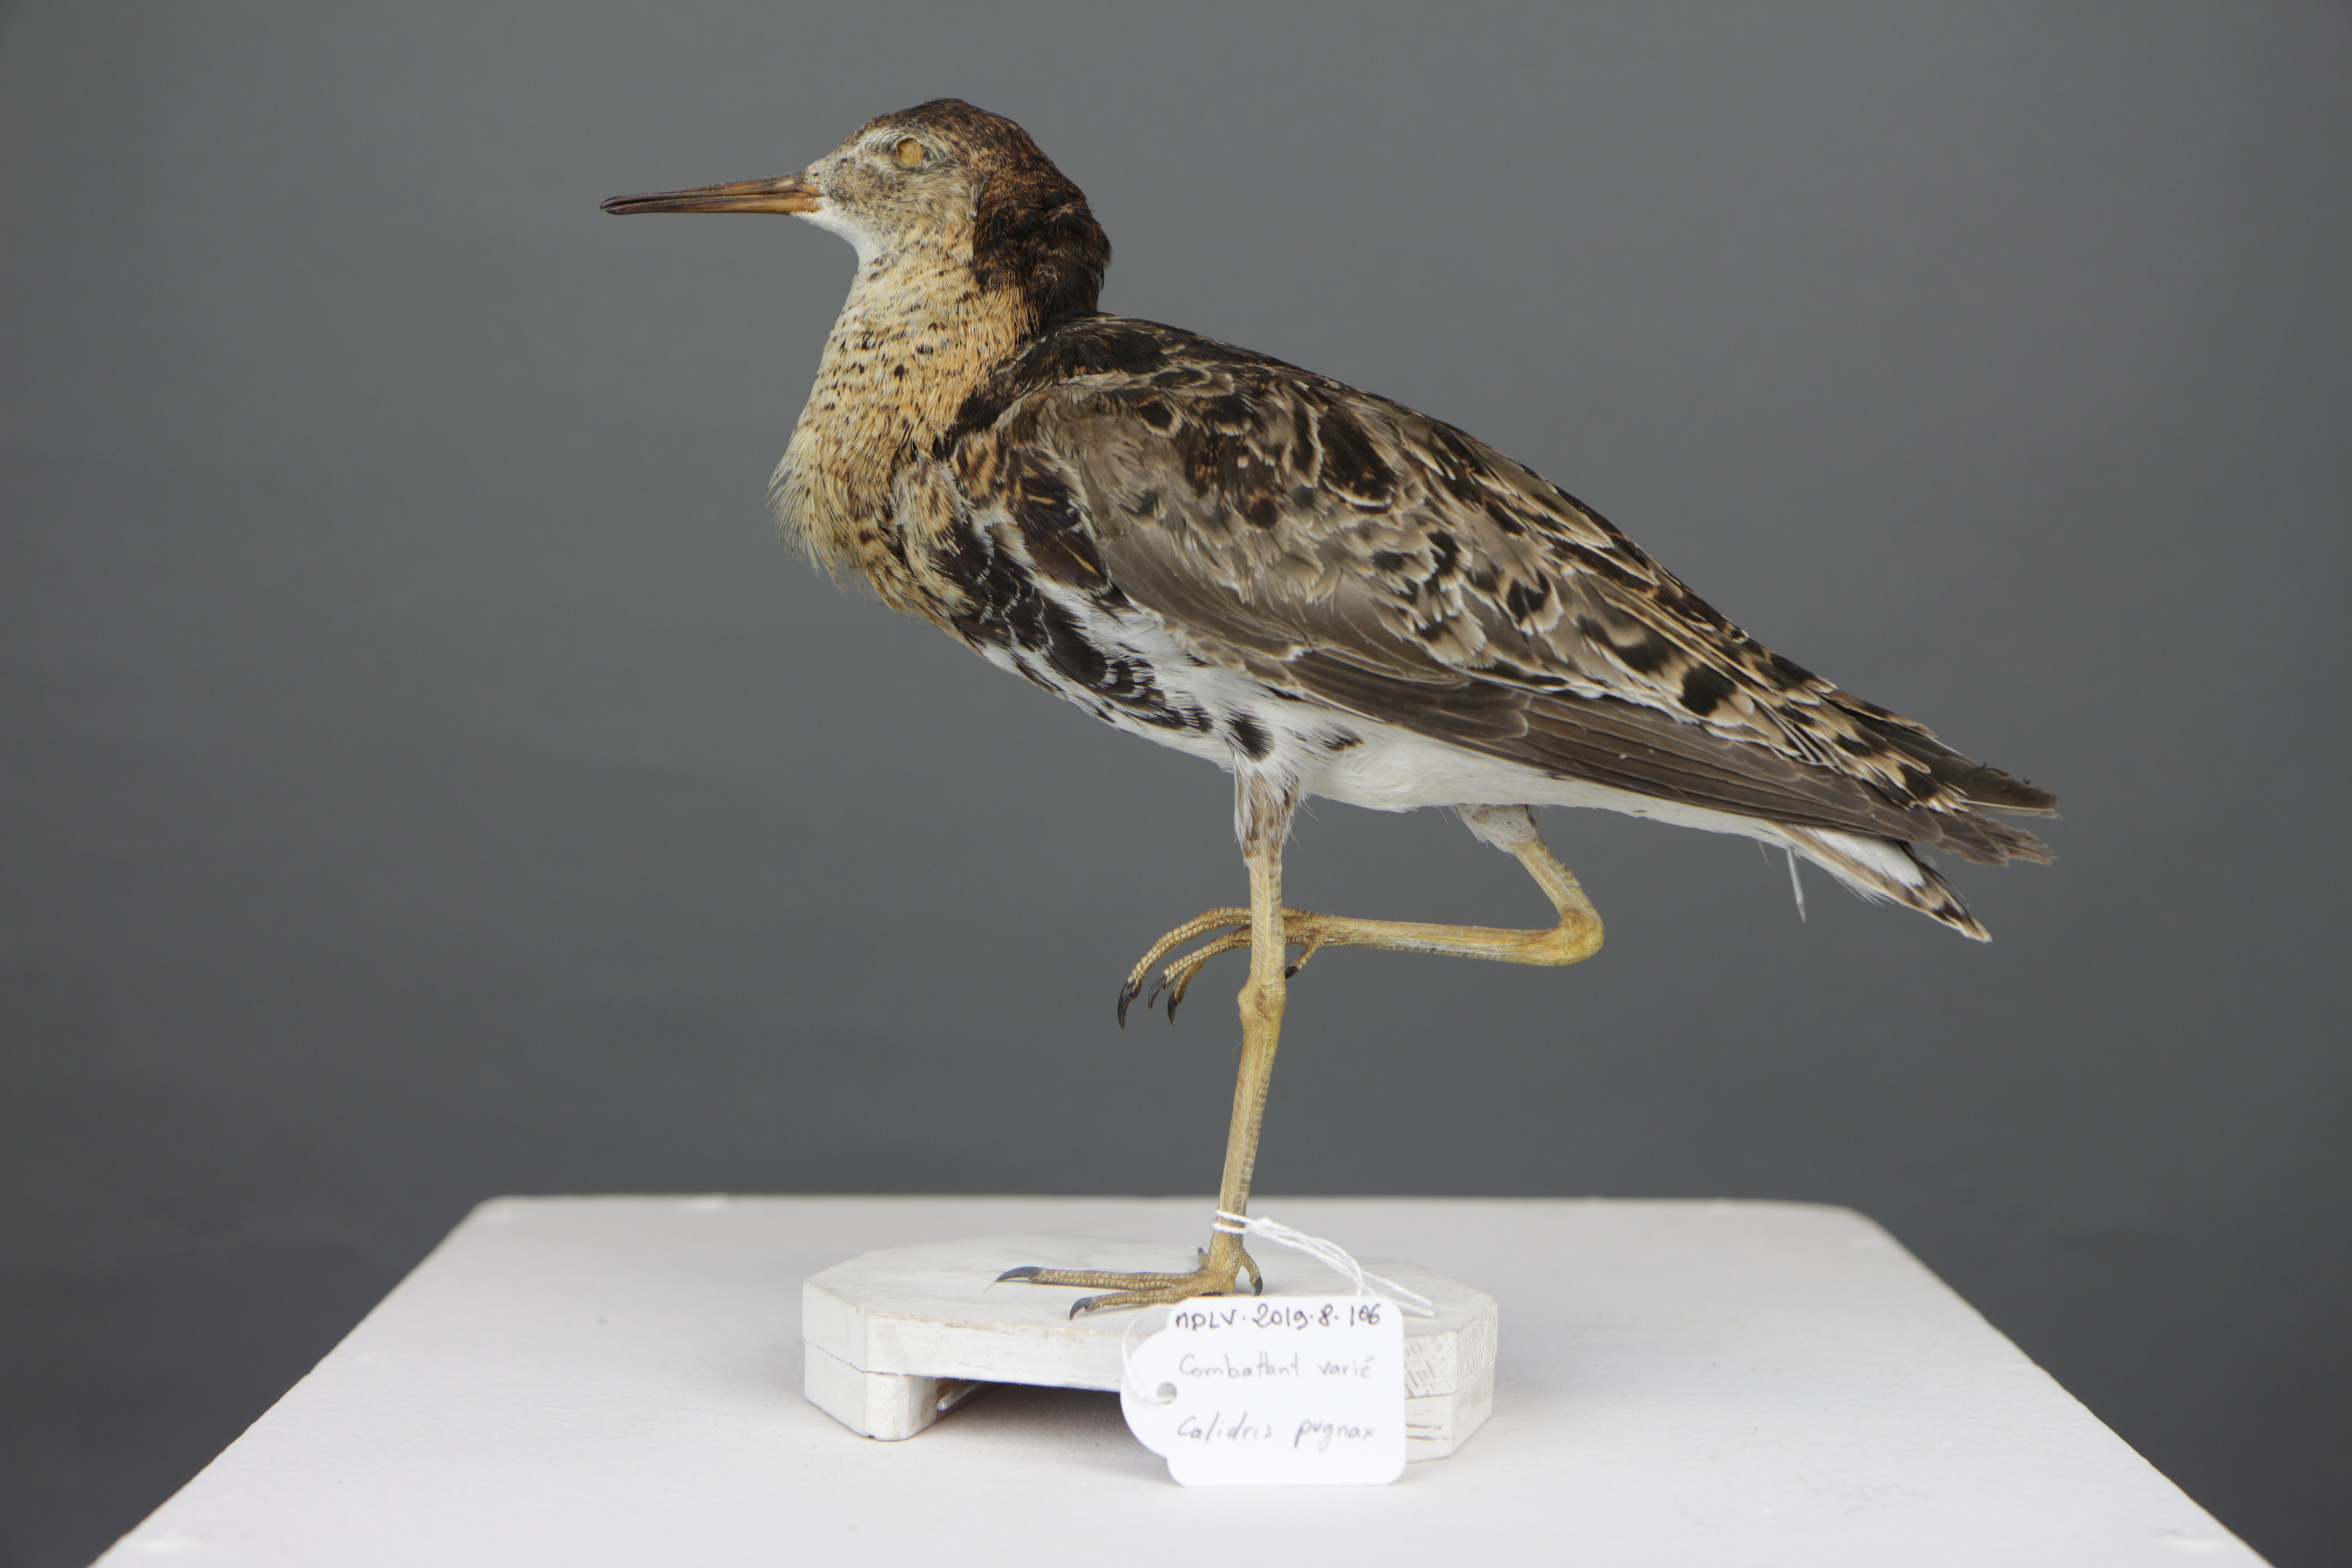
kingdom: Animalia
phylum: Chordata
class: Aves
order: Charadriiformes
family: Scolopacidae
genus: Calidris
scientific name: Calidris pugnax
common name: Ruff
